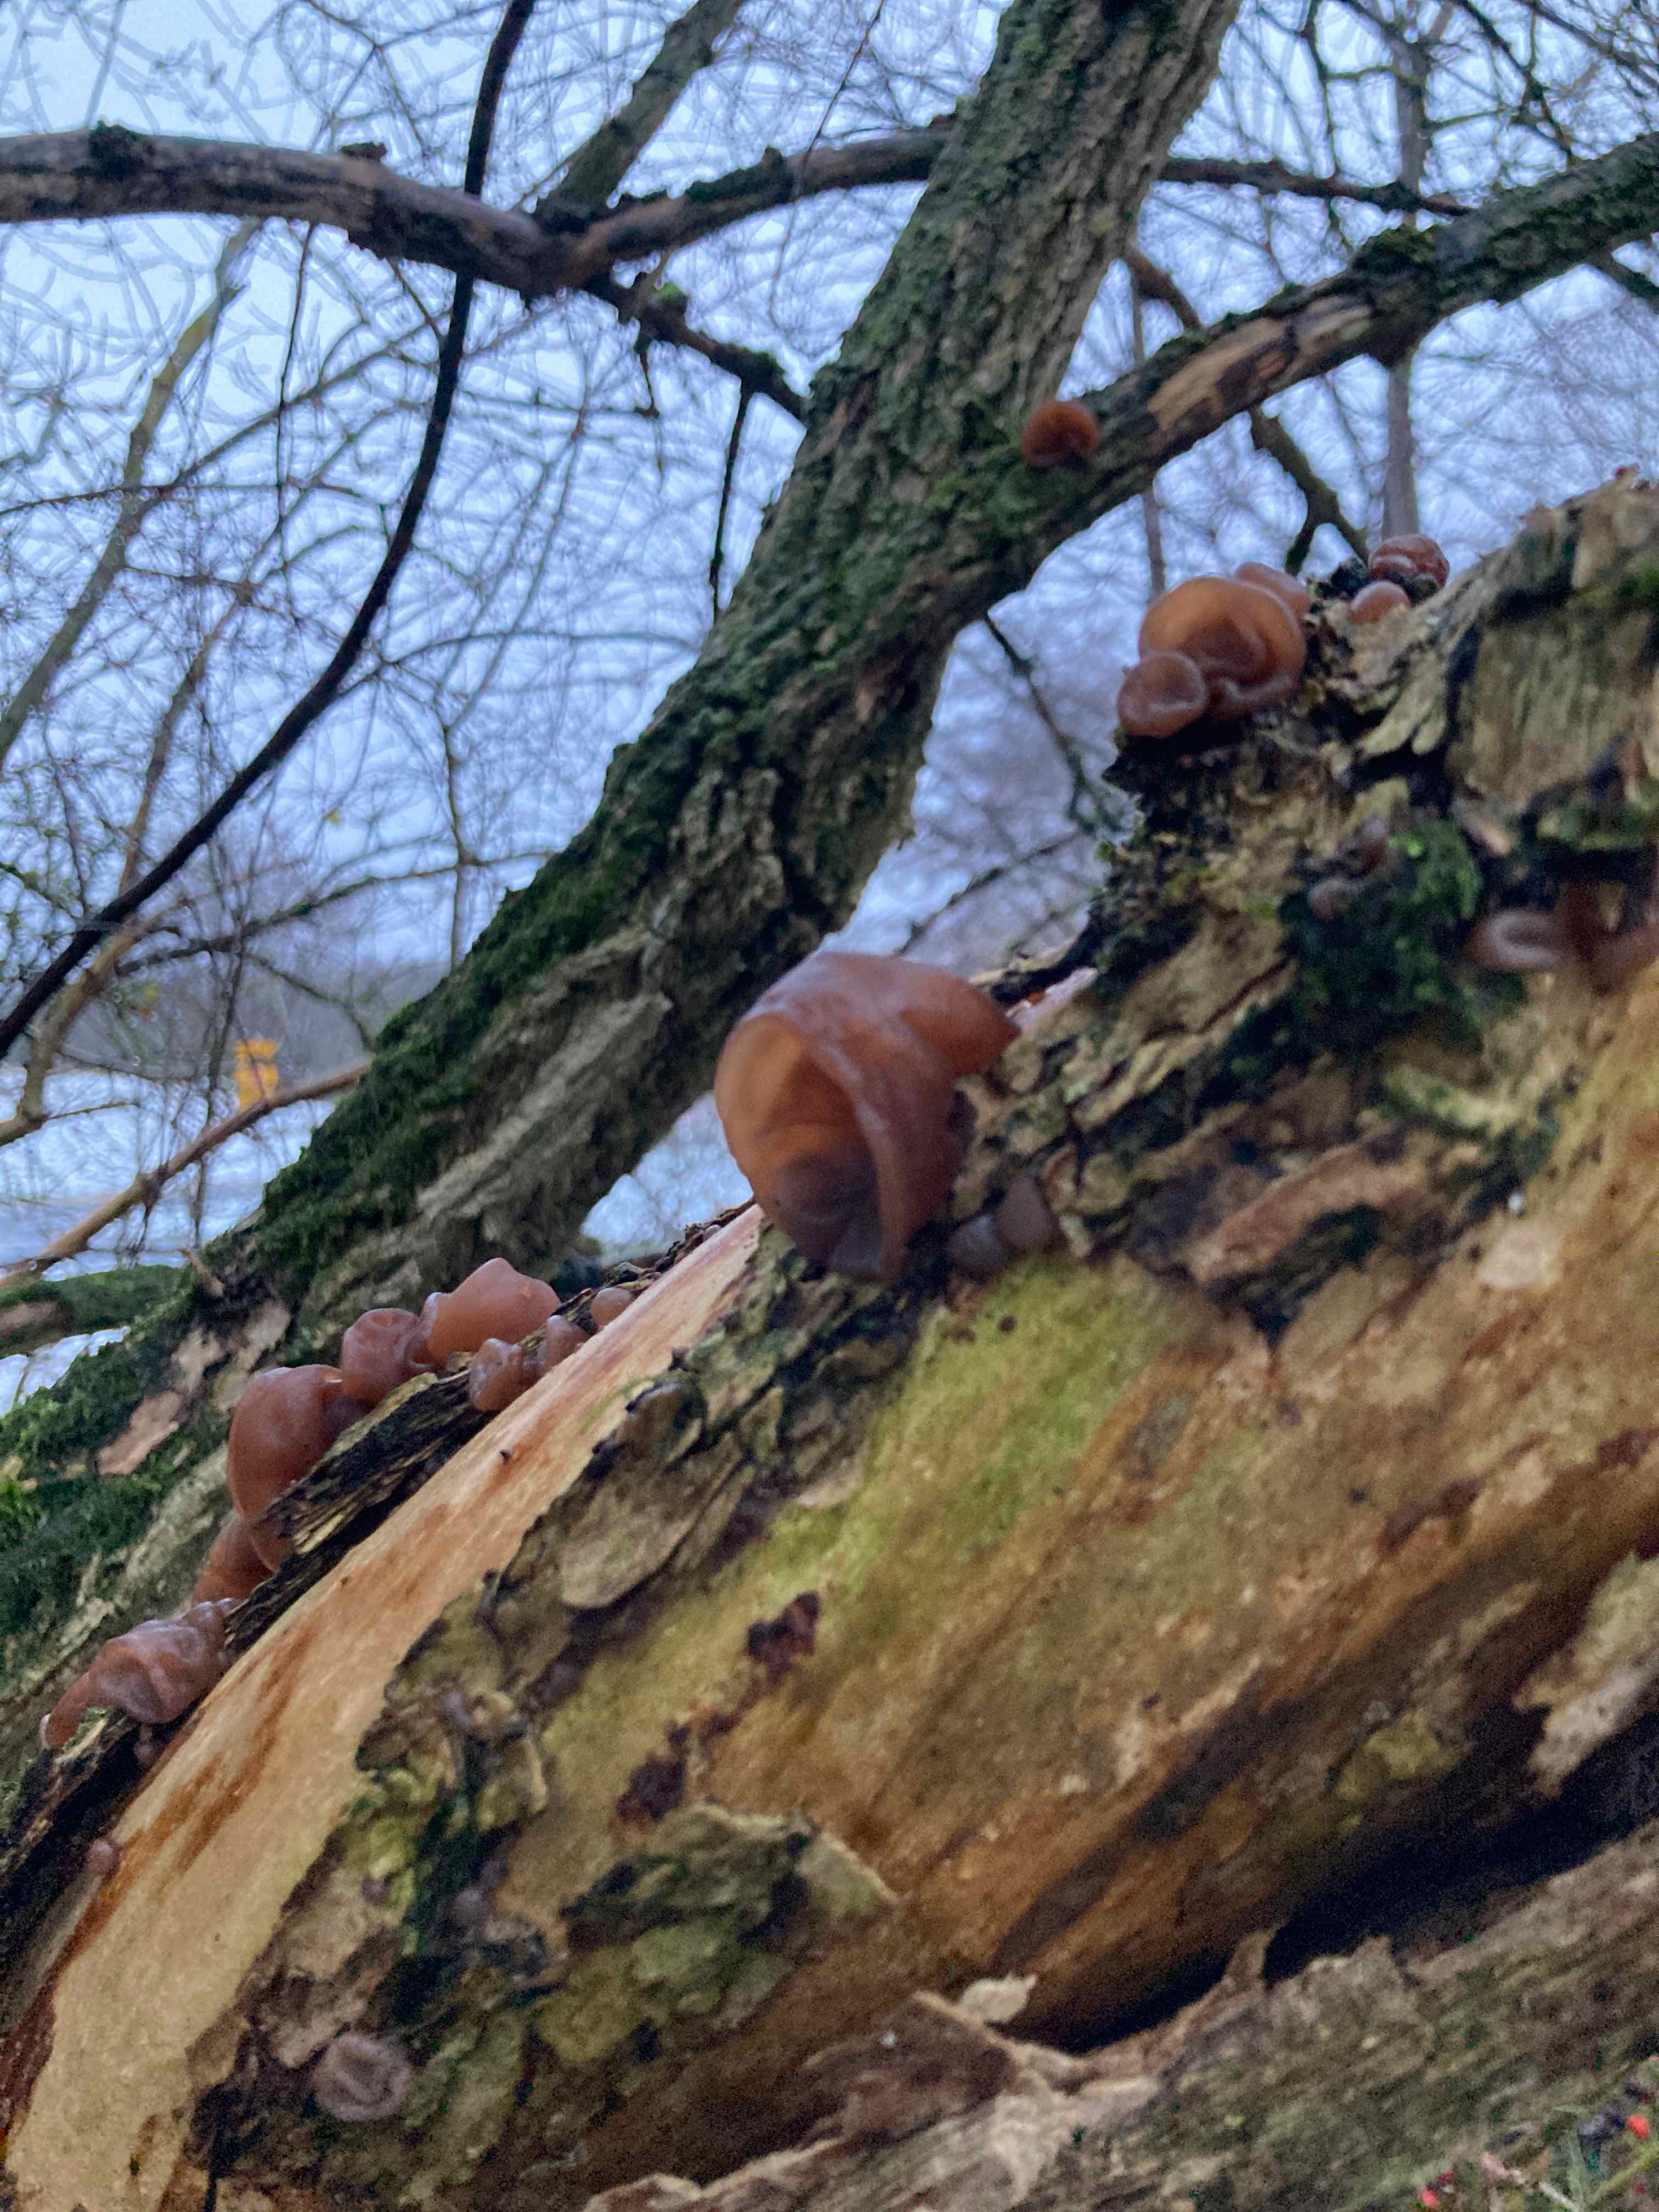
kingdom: Fungi
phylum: Basidiomycota
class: Agaricomycetes
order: Auriculariales
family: Auriculariaceae
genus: Auricularia
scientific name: Auricularia auricula-judae
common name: almindelig judasøre
